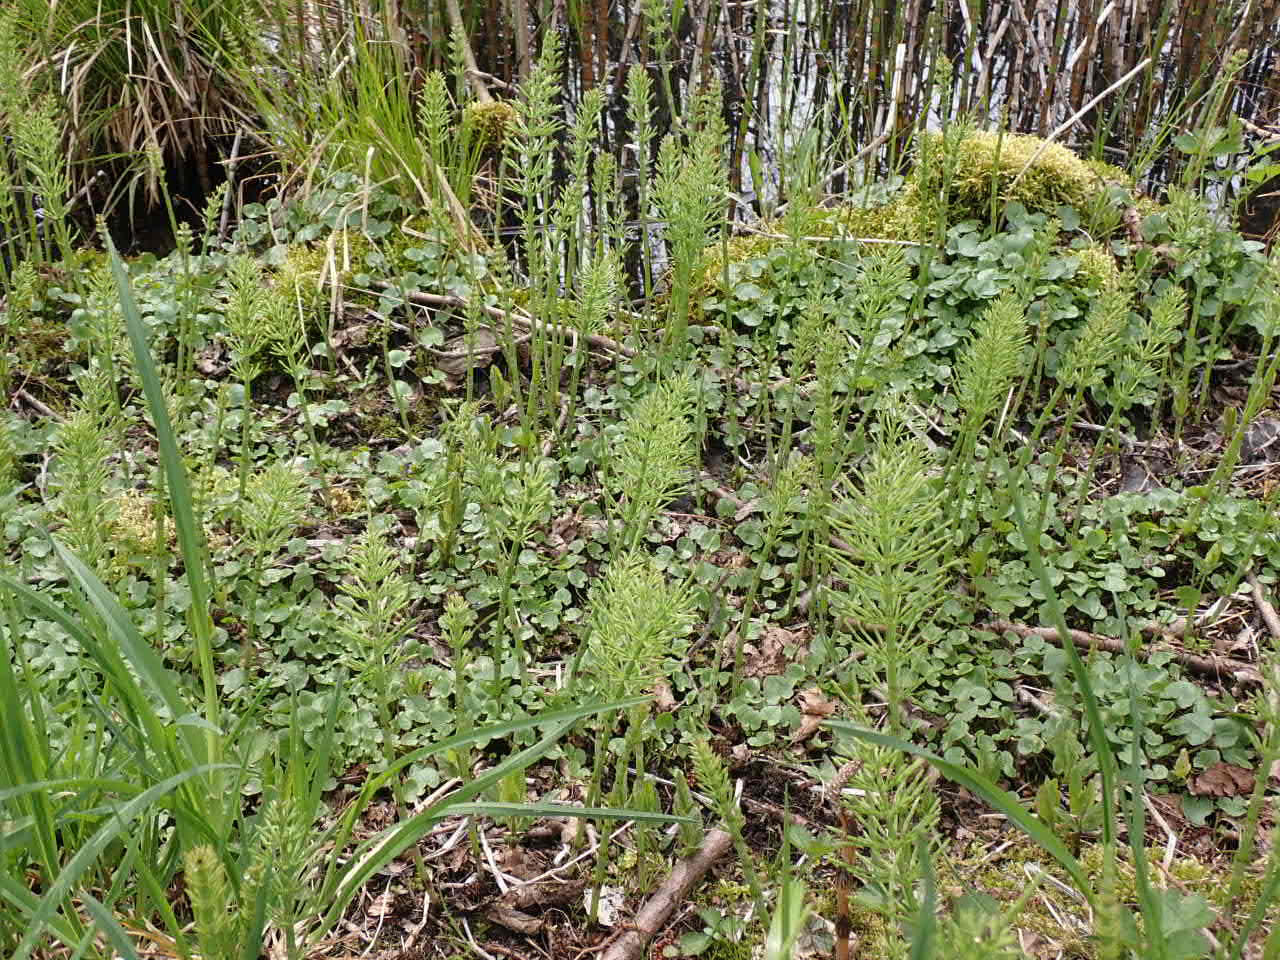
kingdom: Plantae
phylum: Tracheophyta
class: Polypodiopsida
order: Equisetales
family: Equisetaceae
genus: Equisetum
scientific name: Equisetum arvense
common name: Ager-padderok
